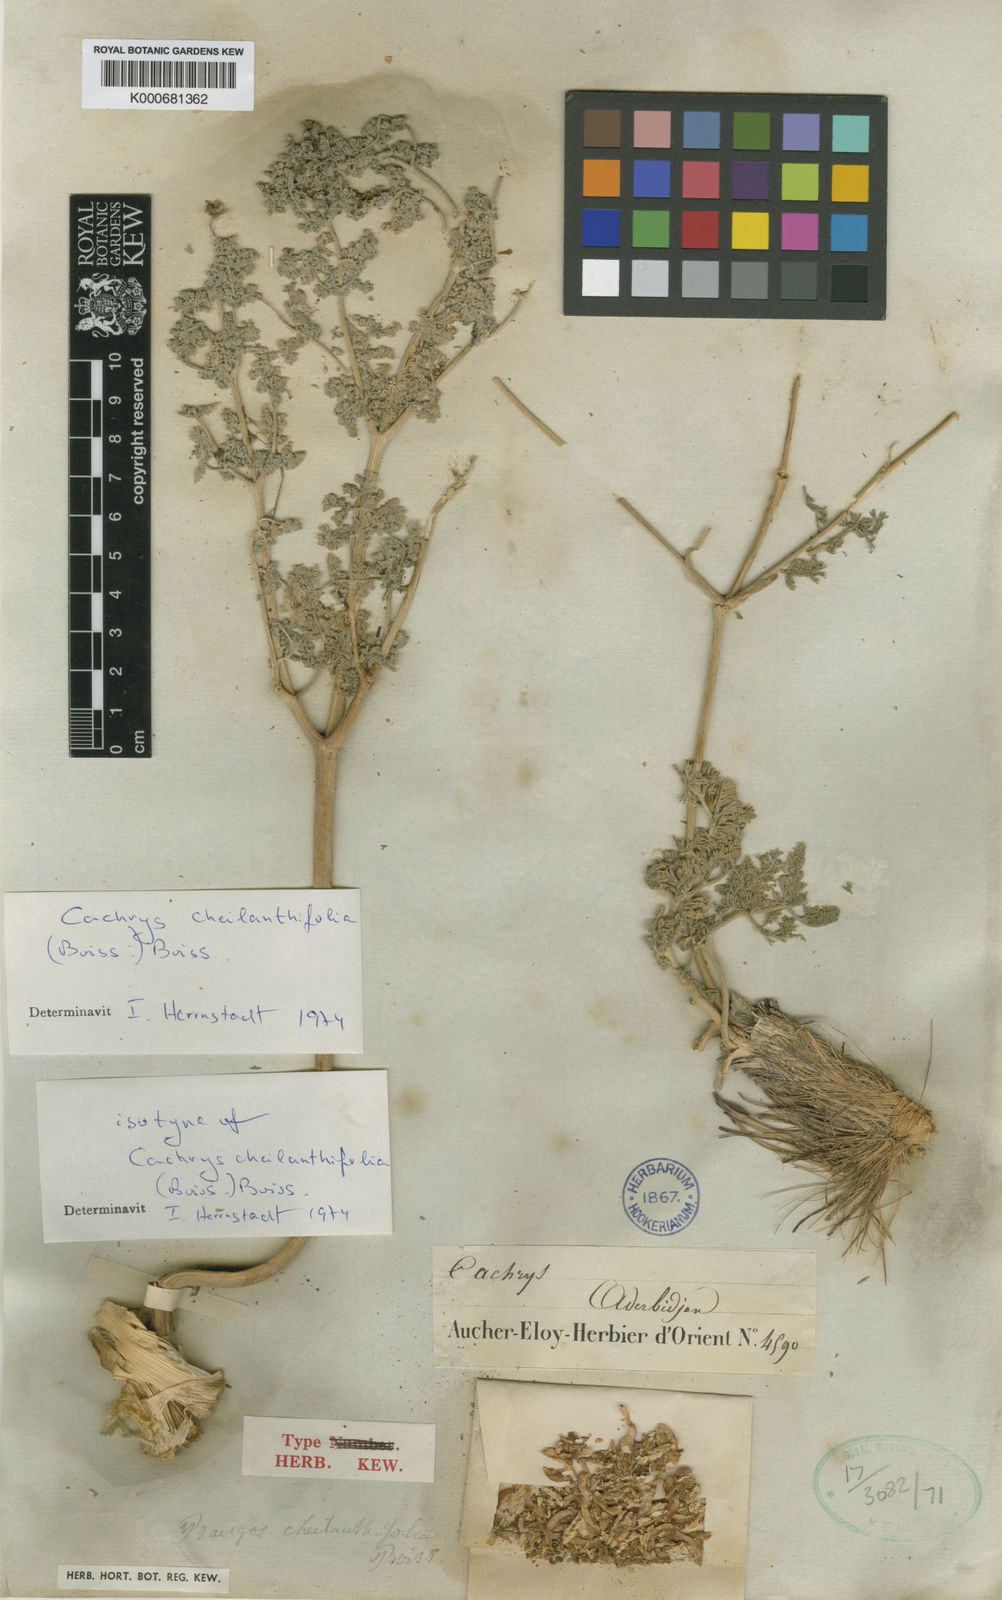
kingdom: Plantae
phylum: Tracheophyta
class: Magnoliopsida
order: Apiales
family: Apiaceae
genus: Prangos
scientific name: Prangos cheilanthifolia
